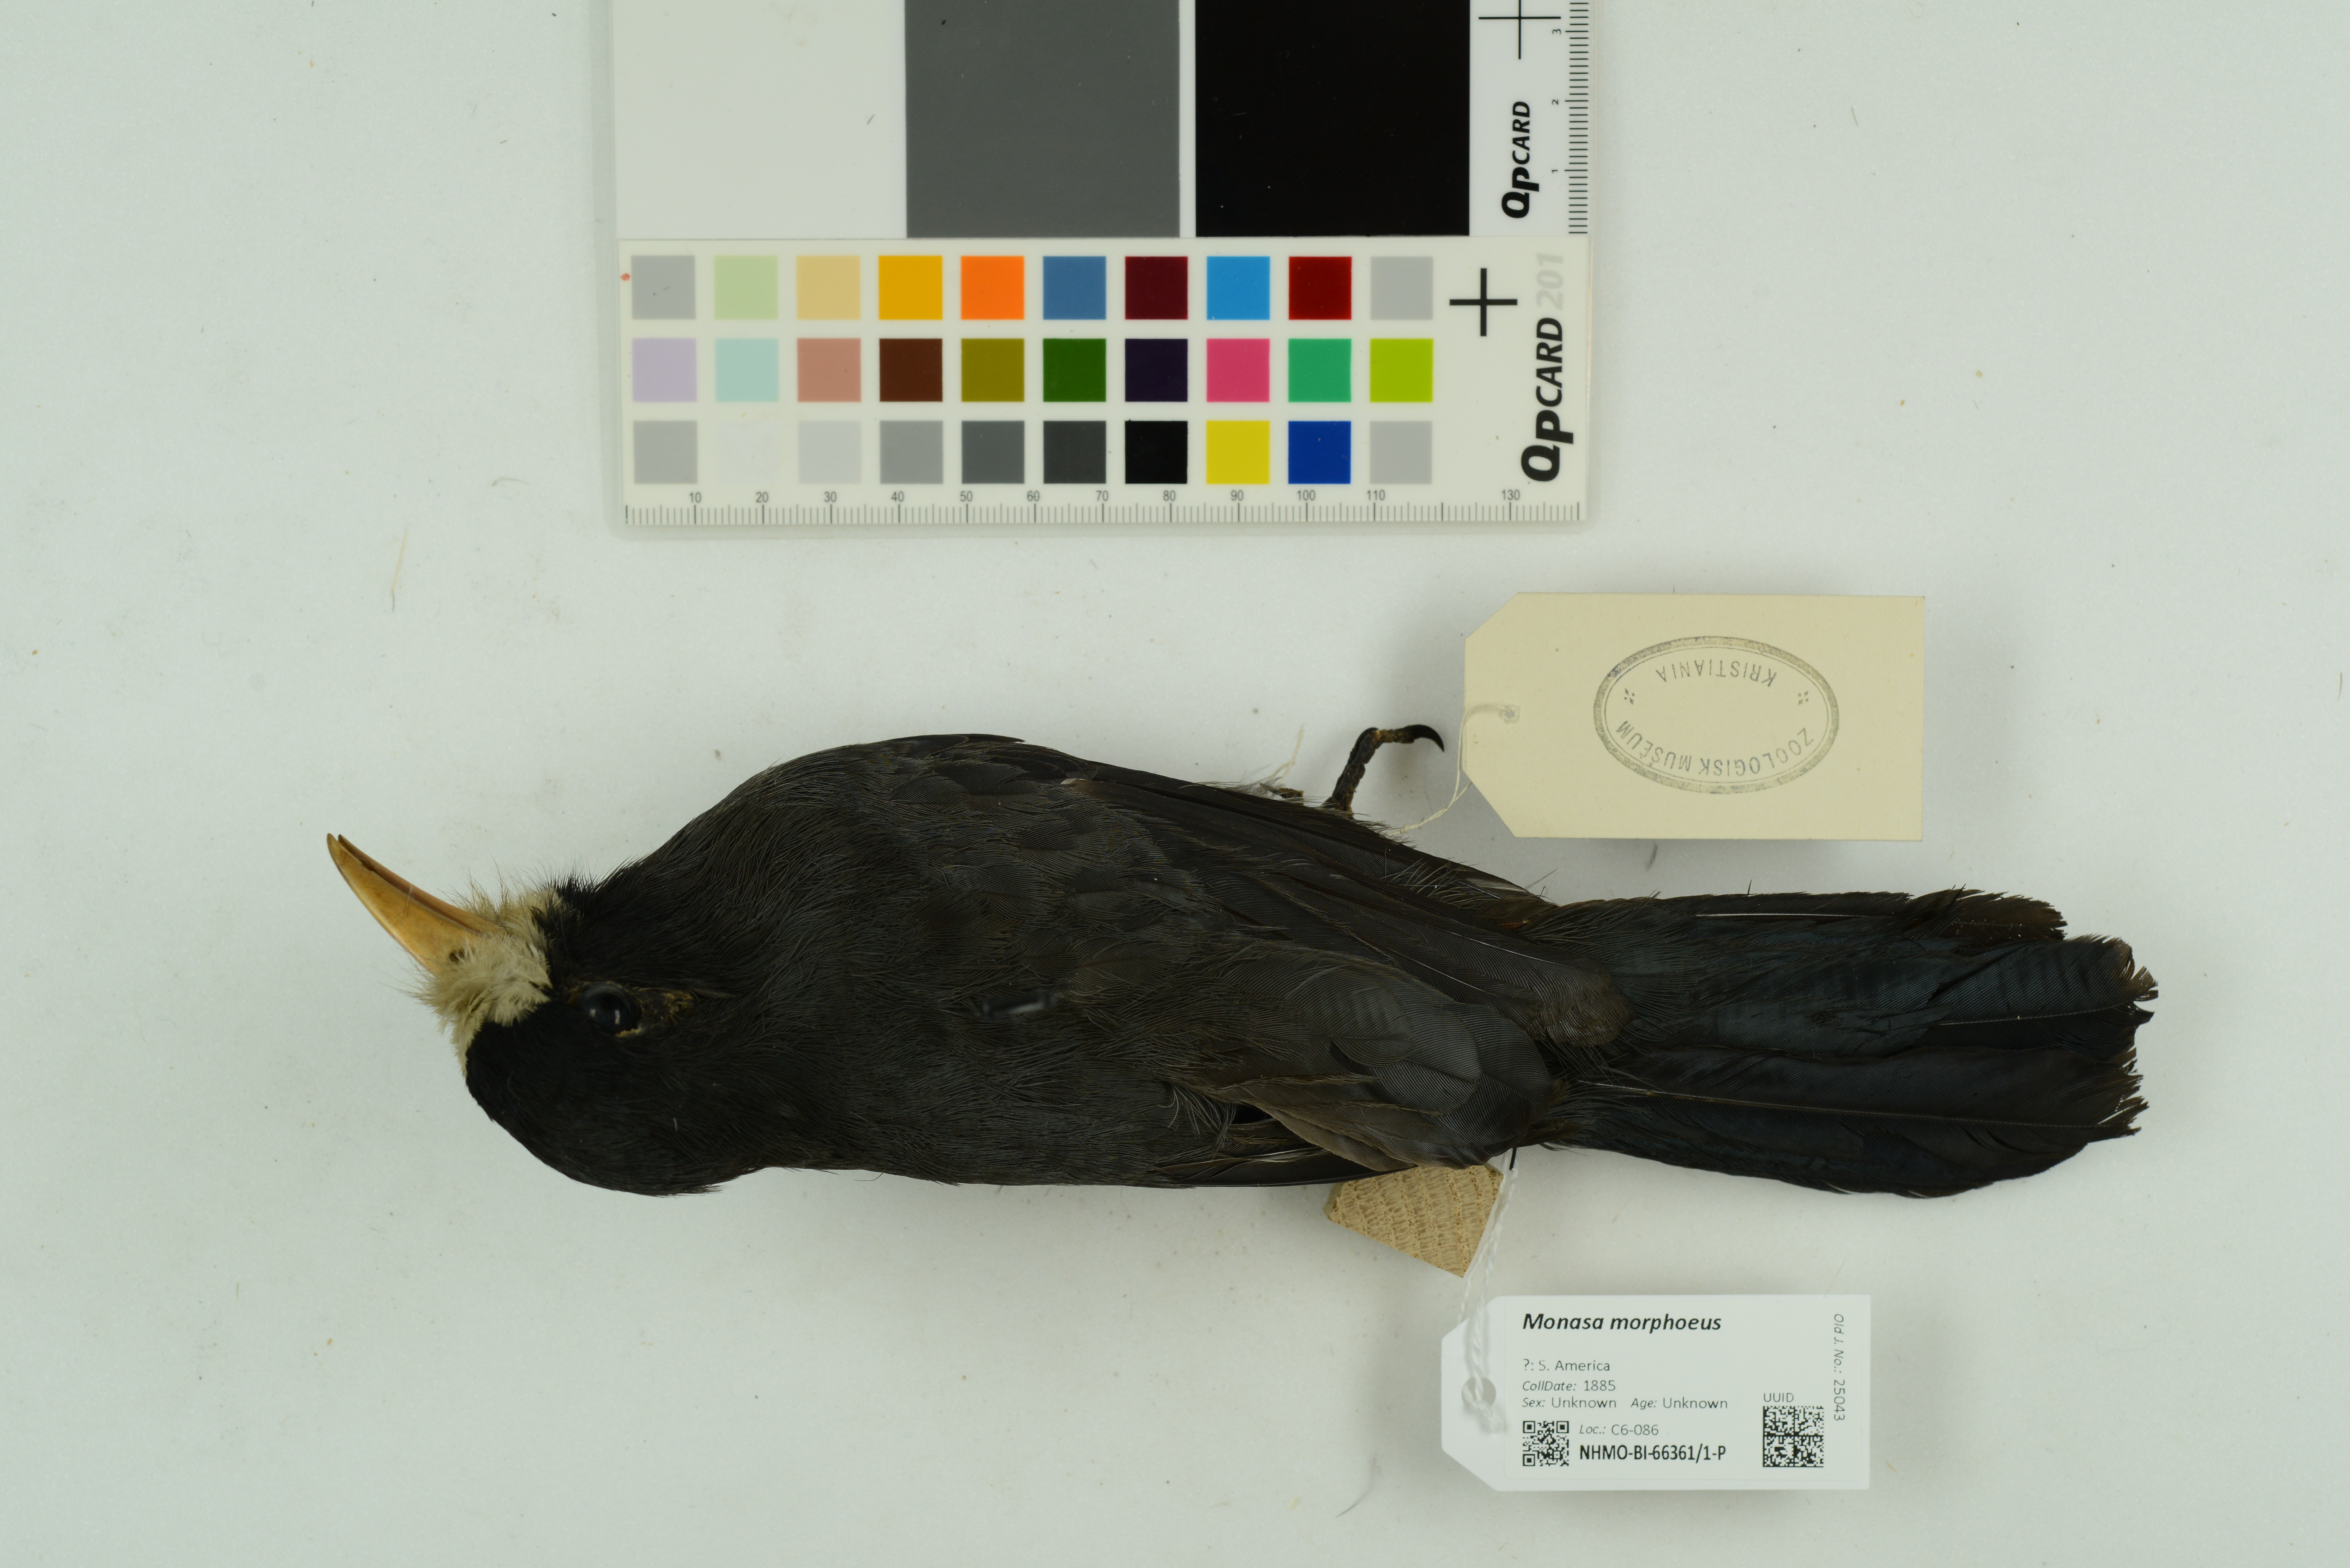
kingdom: Animalia
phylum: Chordata
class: Aves
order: Piciformes
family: Bucconidae
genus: Monasa
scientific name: Monasa morphoeus
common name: White-fronted nunbird
